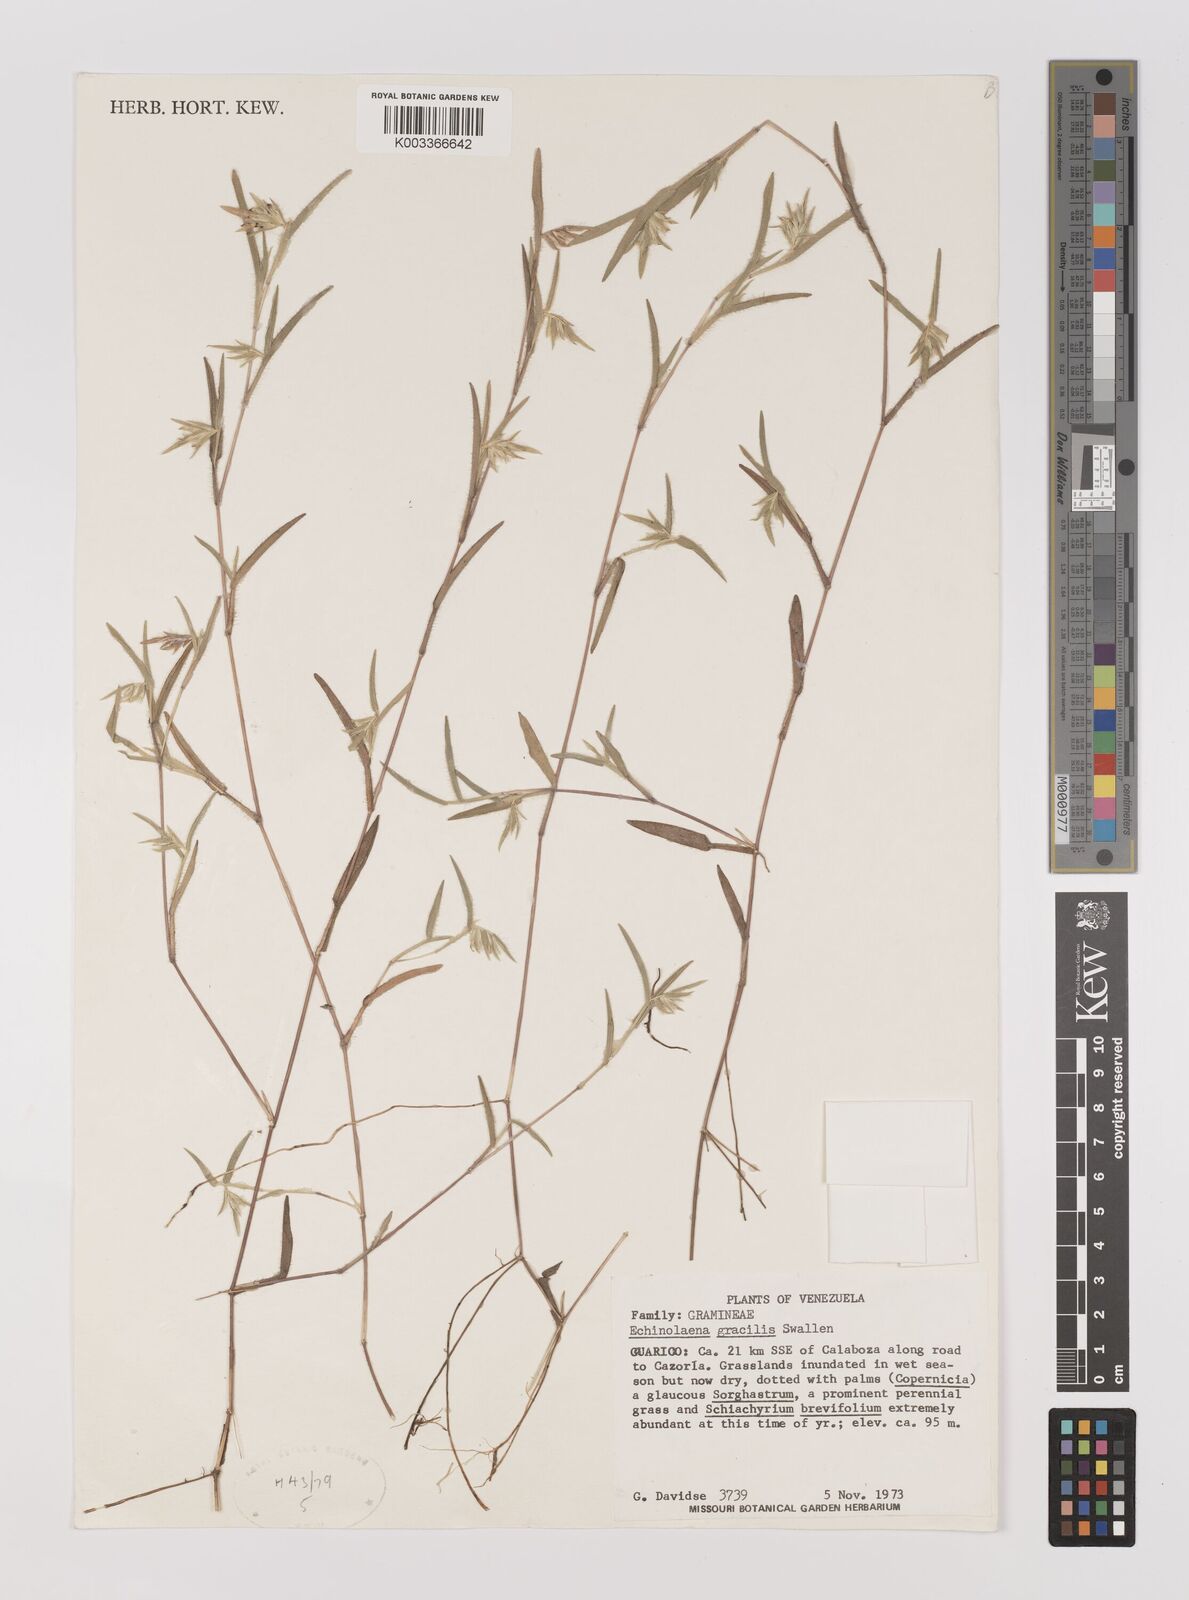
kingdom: Plantae
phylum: Tracheophyta
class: Liliopsida
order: Poales
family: Poaceae
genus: Echinolaena
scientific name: Echinolaena gracilis
